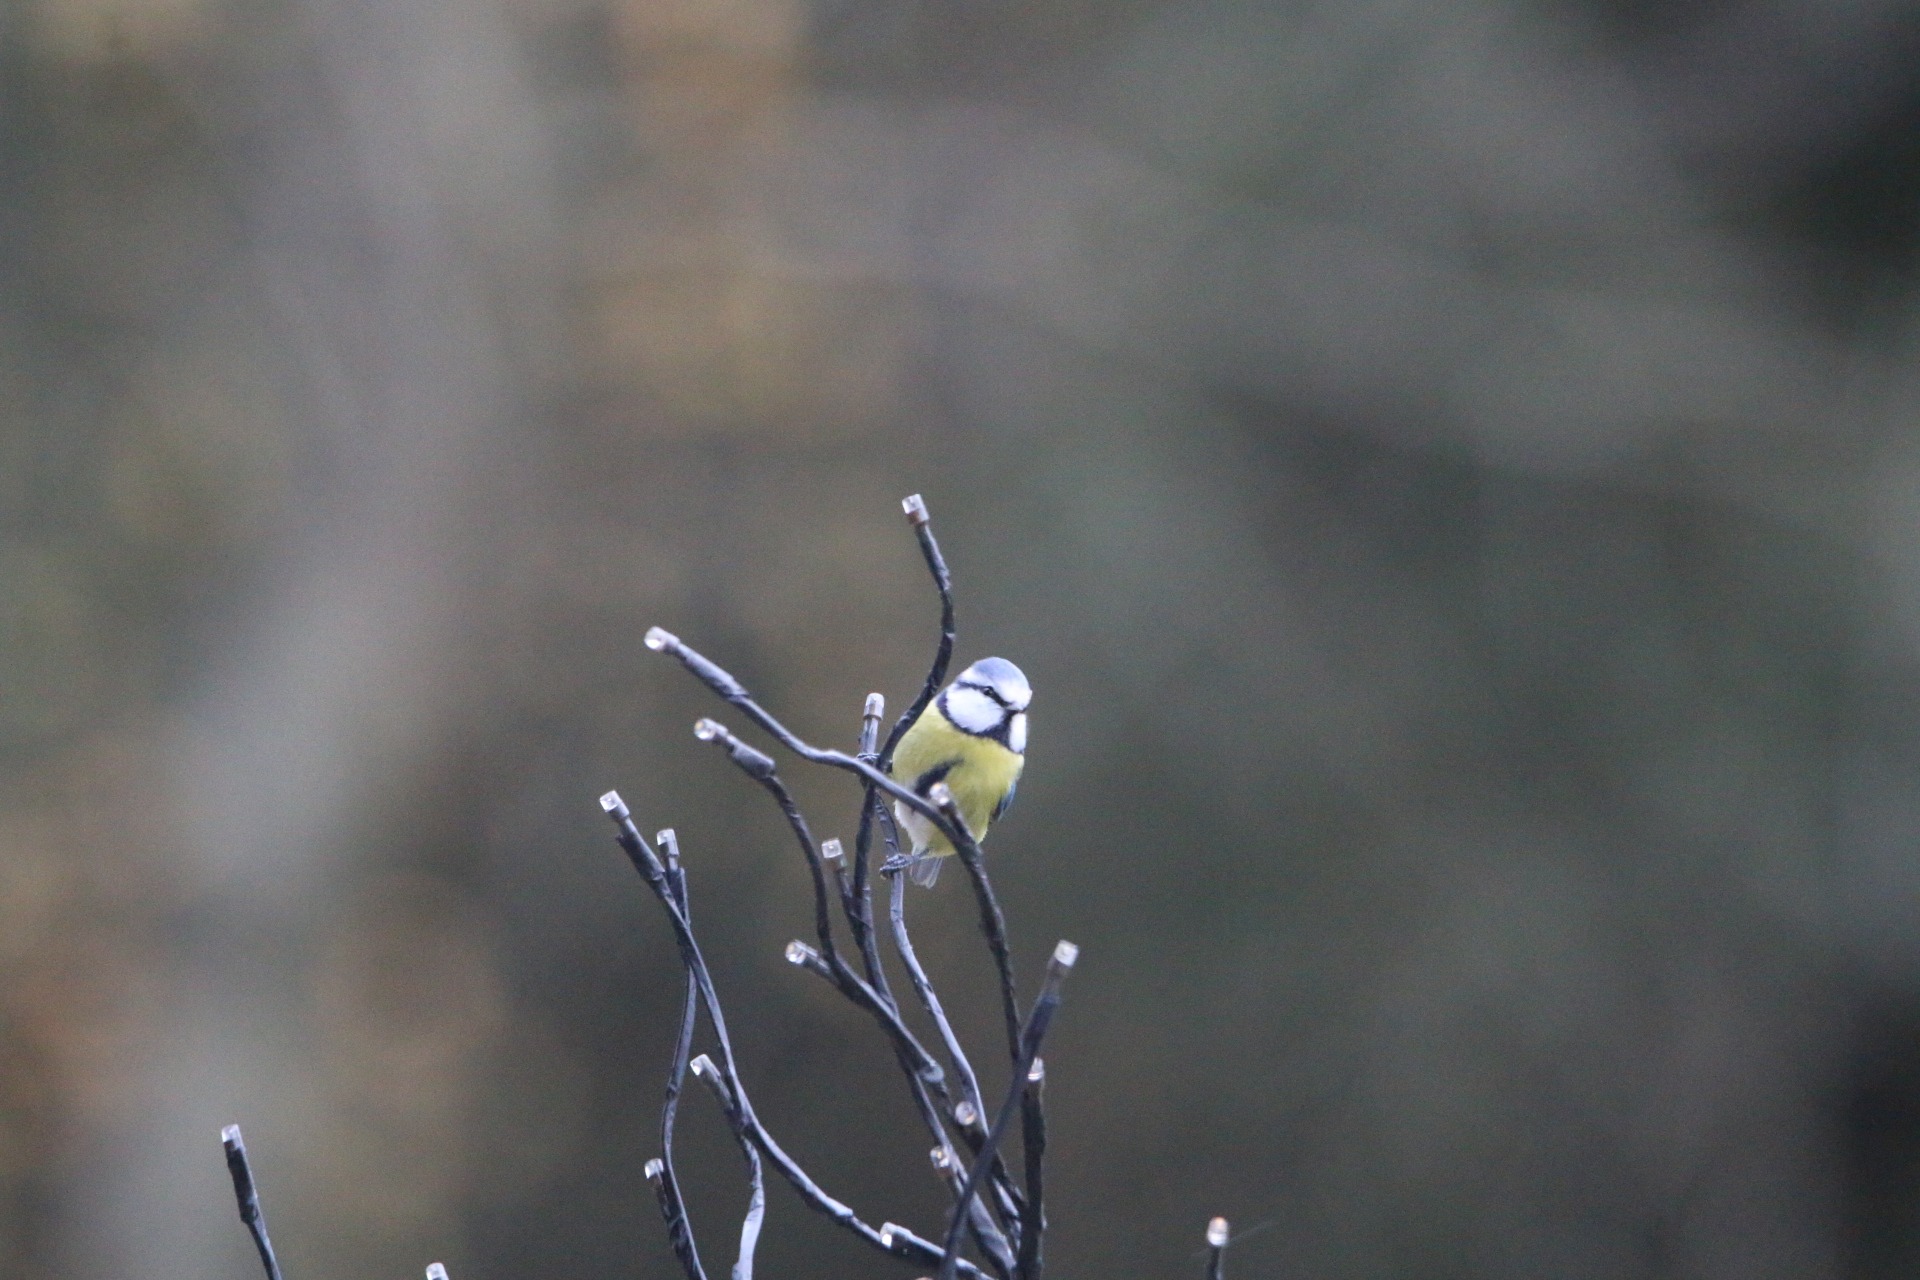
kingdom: Animalia
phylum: Chordata
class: Aves
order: Passeriformes
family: Paridae
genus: Cyanistes
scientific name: Cyanistes caeruleus
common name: Blåmejse
